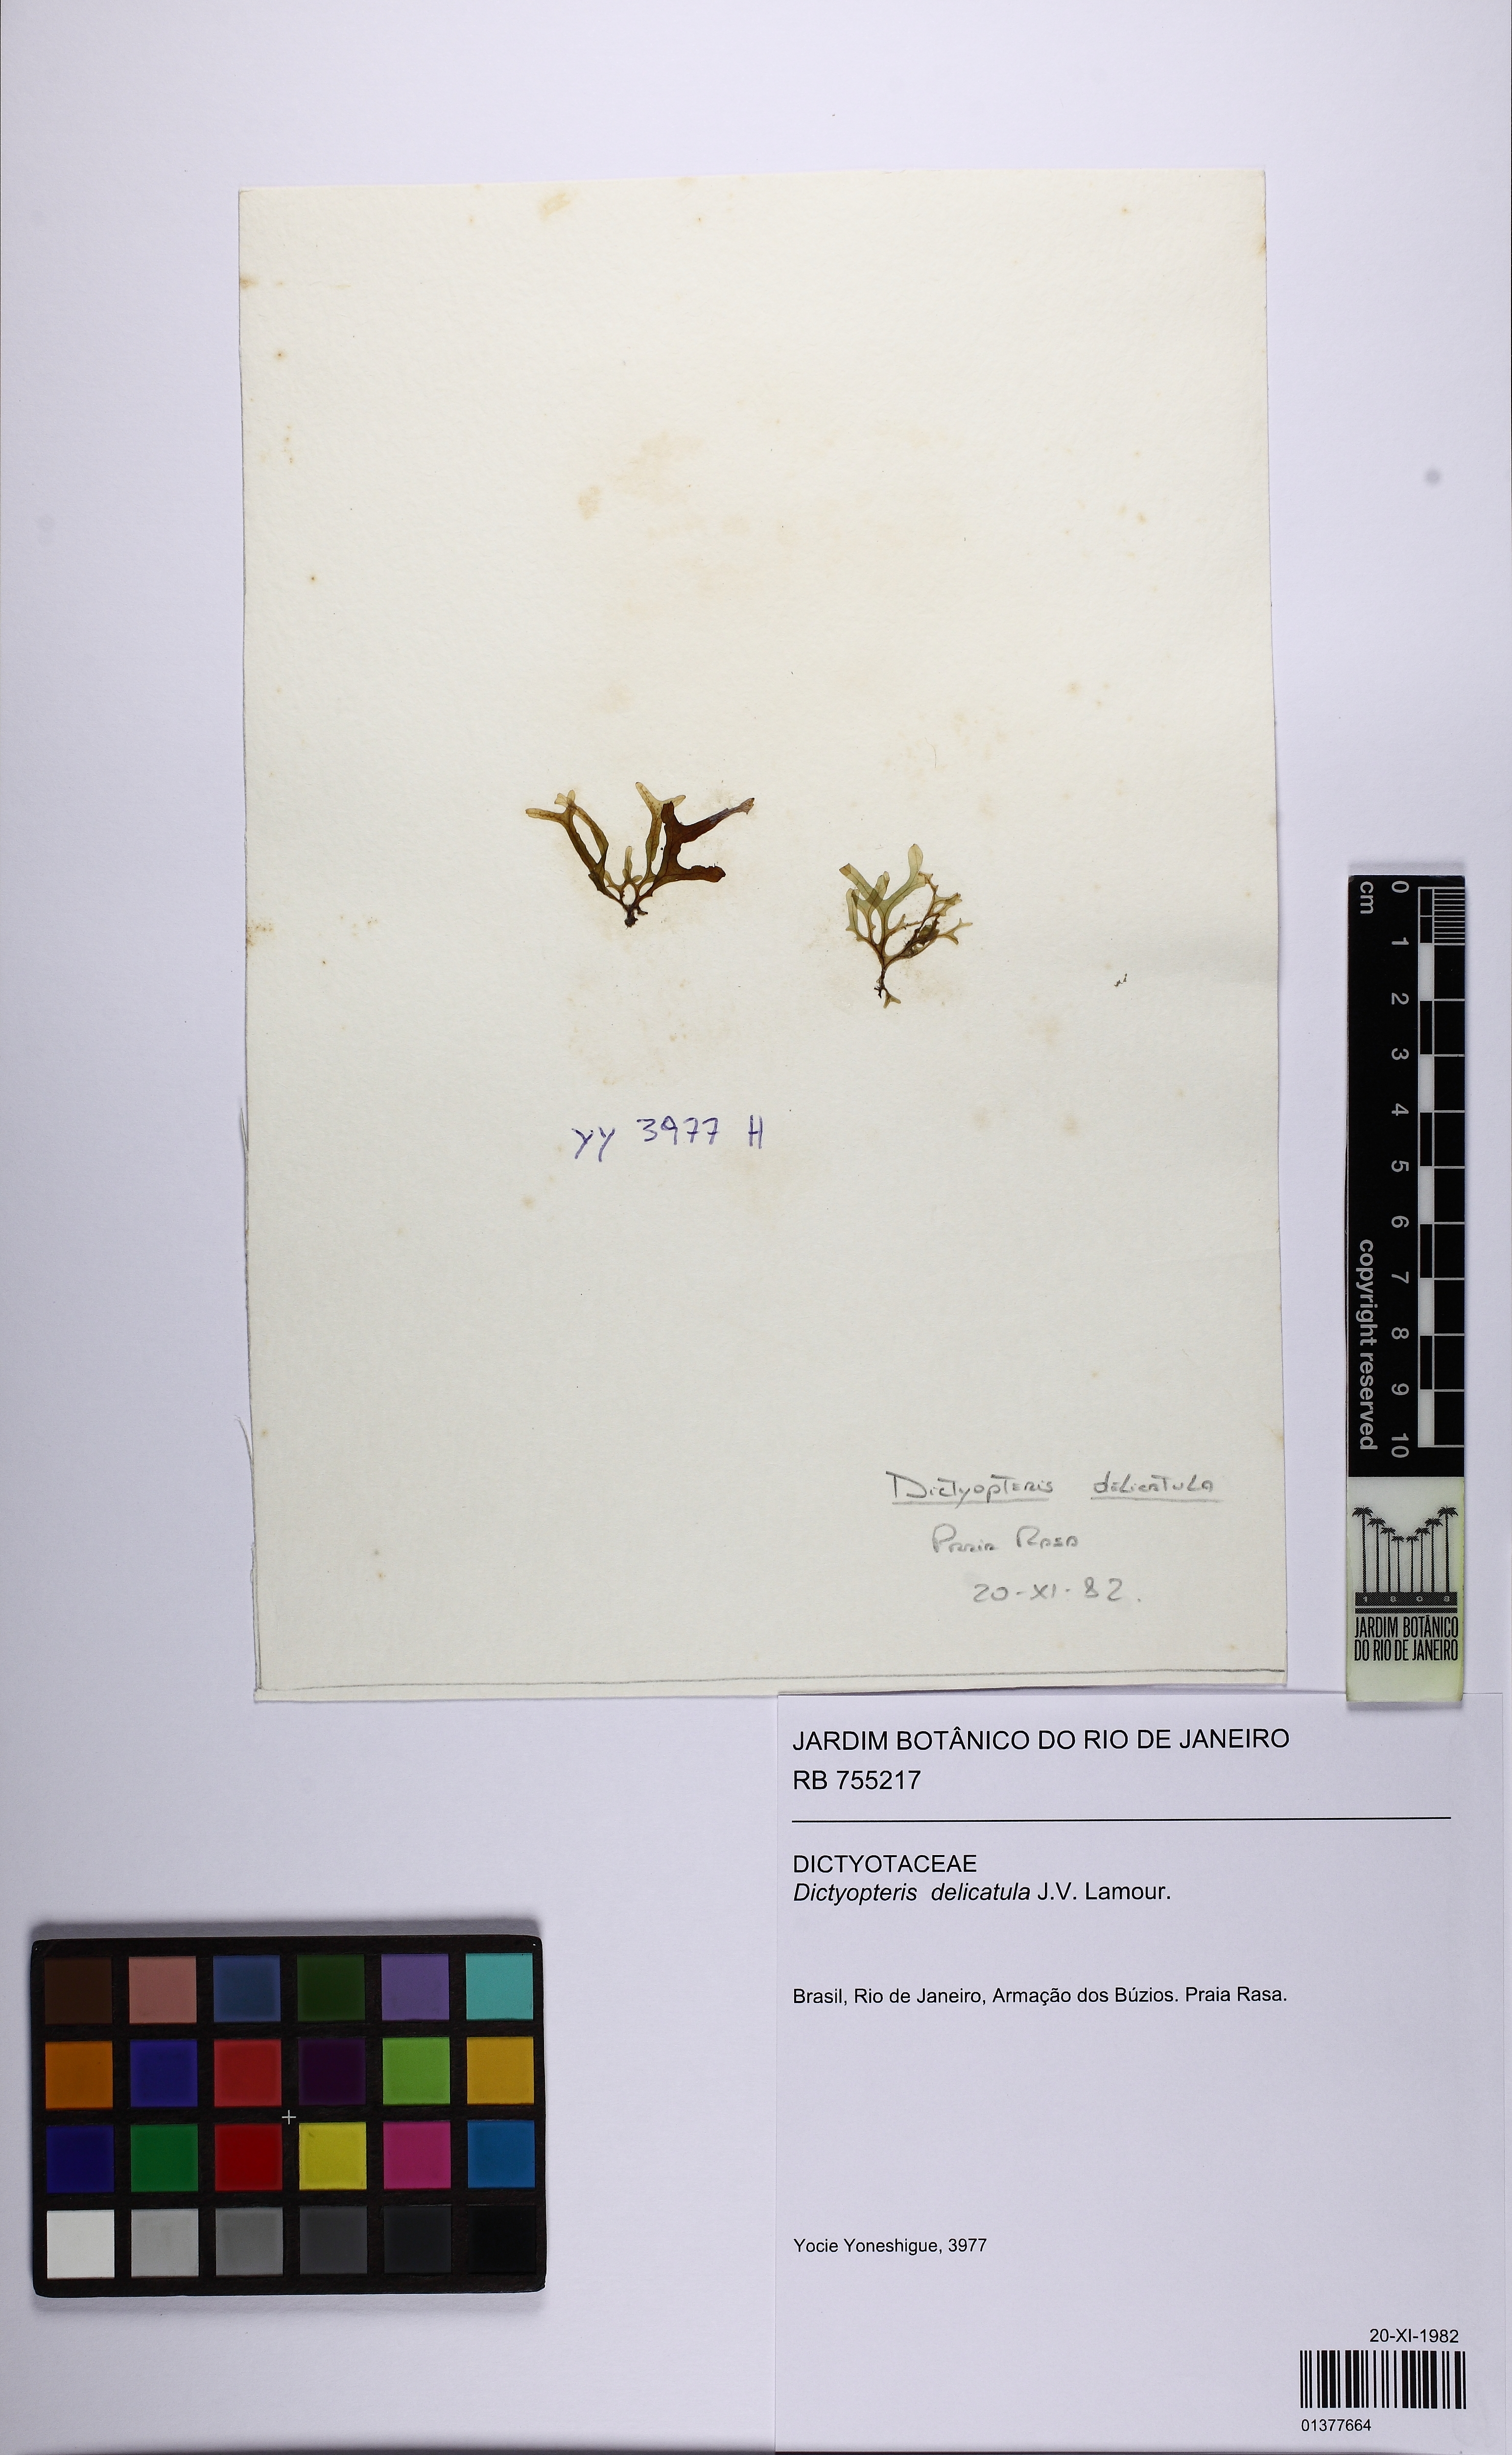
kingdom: Chromista
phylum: Ochrophyta
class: Phaeophyceae
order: Dictyotales
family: Dictyotaceae
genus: Dictyopteris
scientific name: Dictyopteris delicatula
